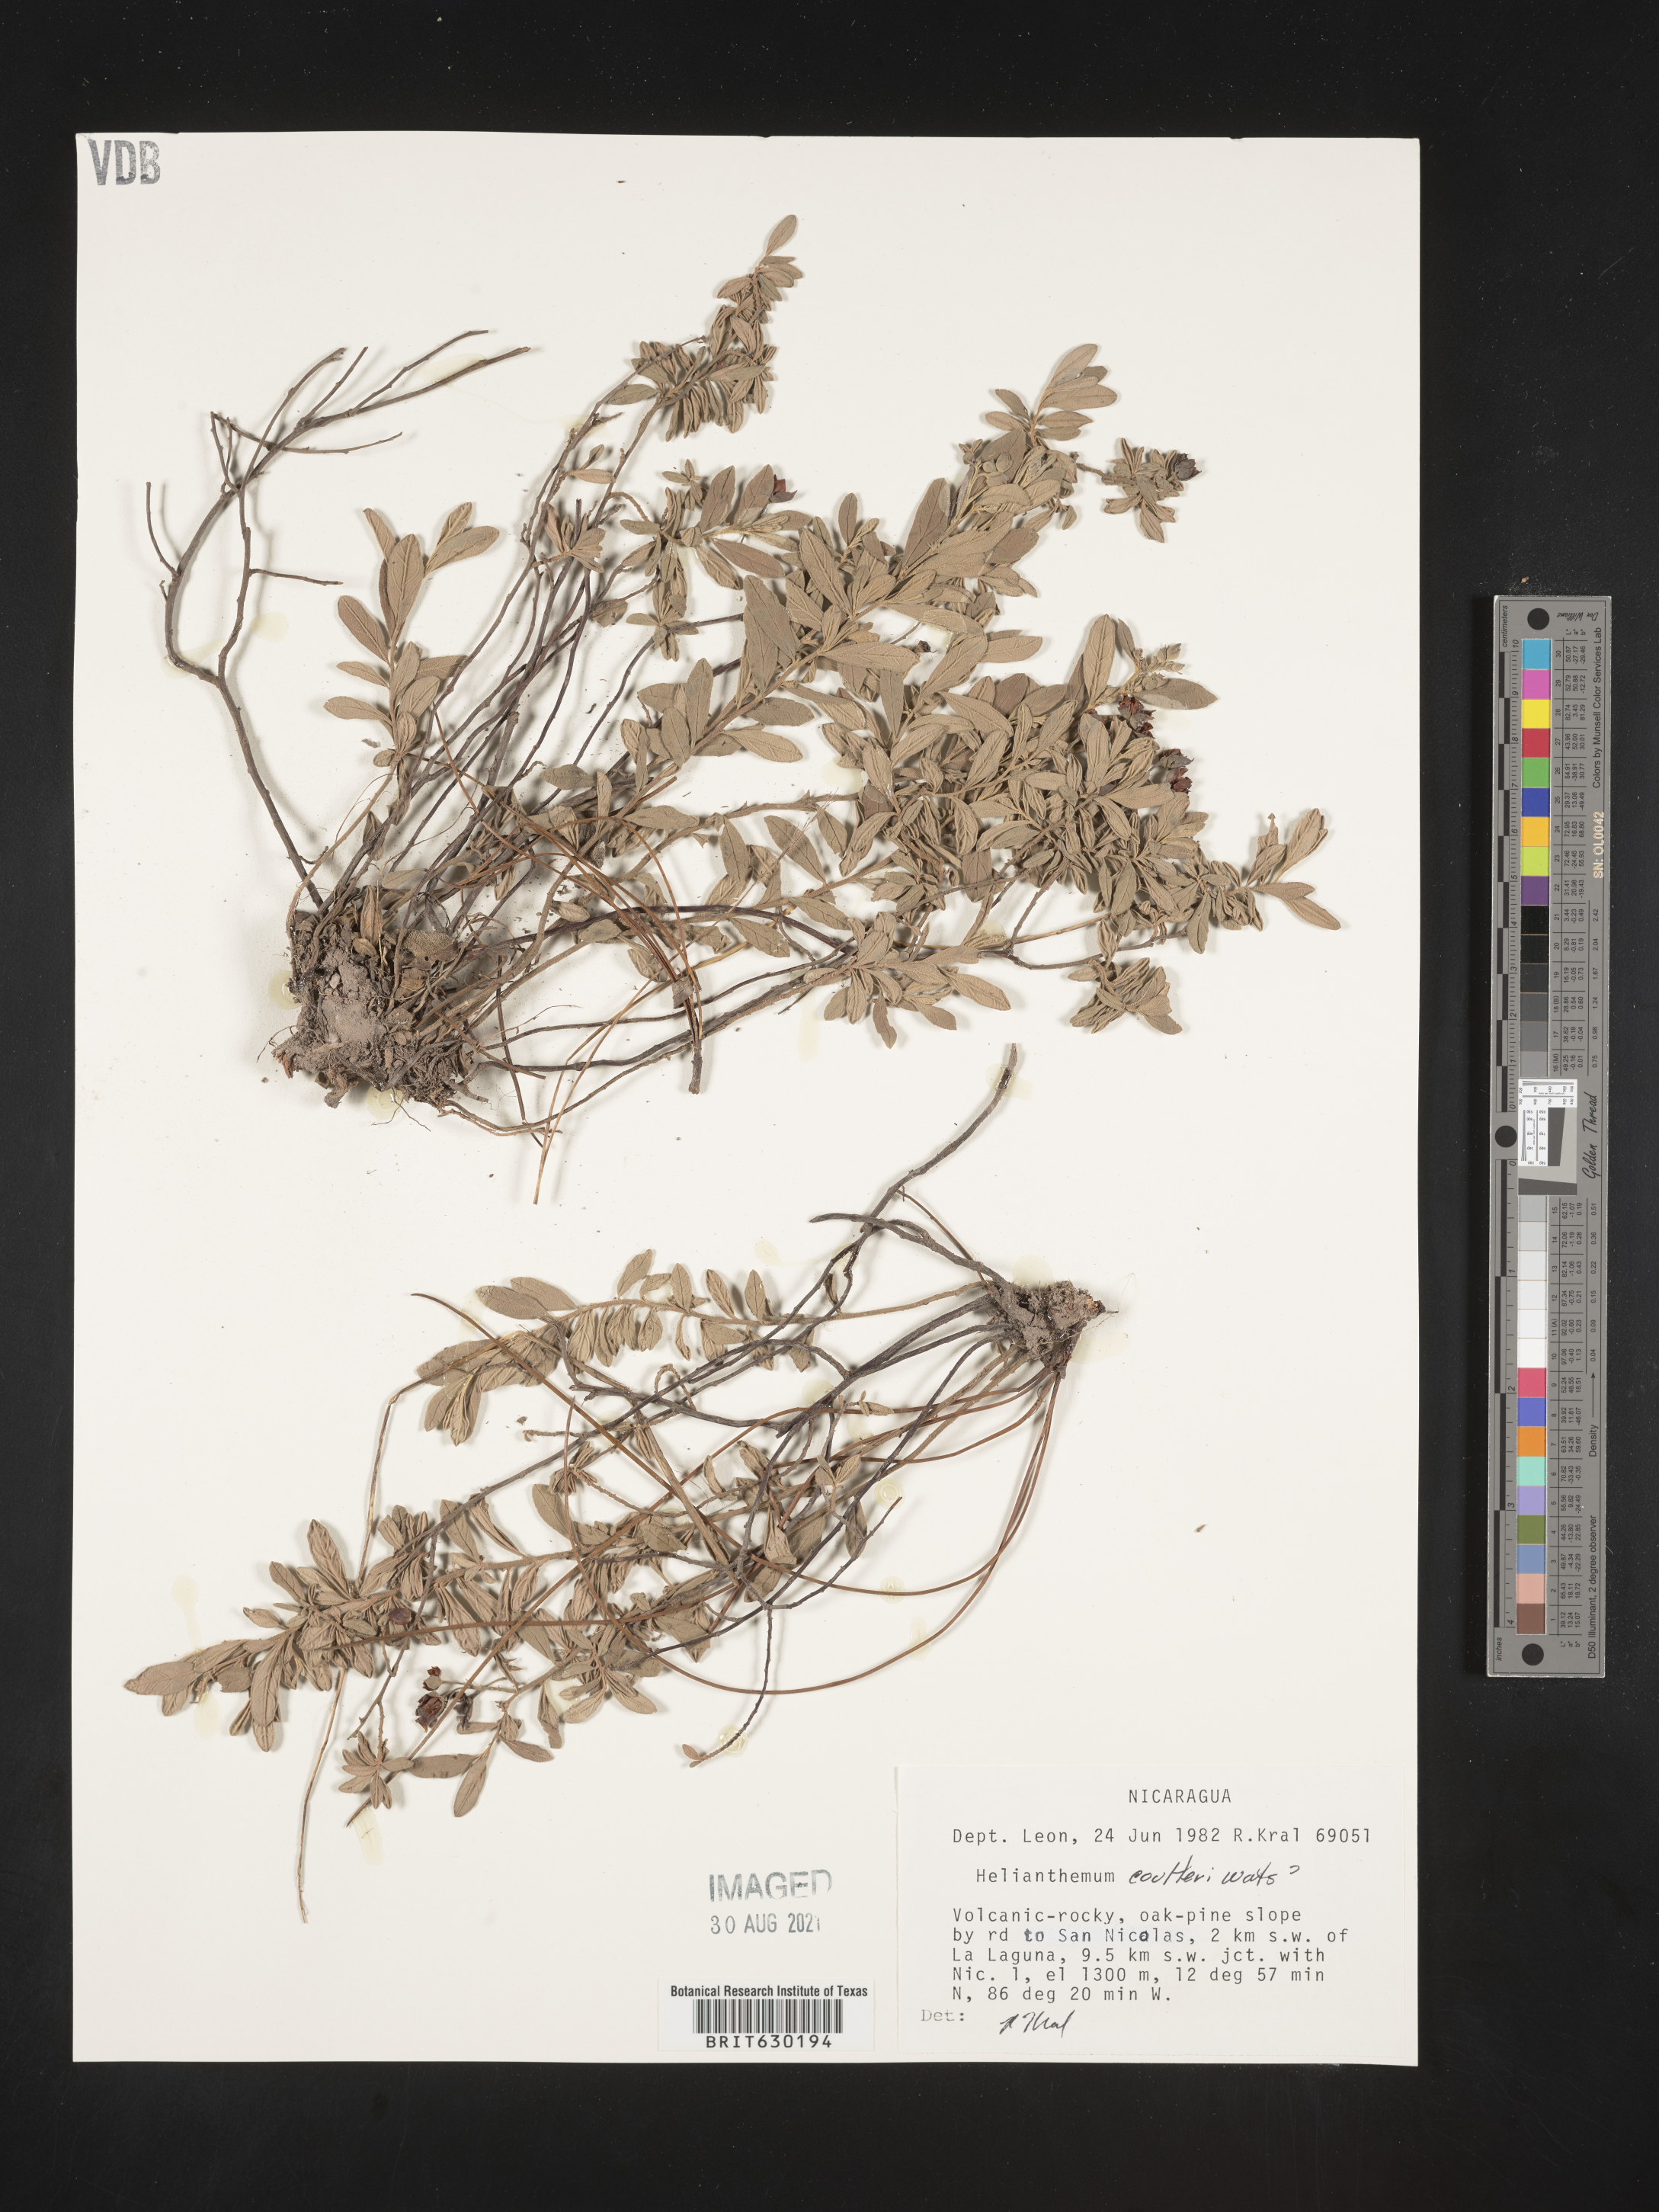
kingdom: Plantae
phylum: Tracheophyta
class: Magnoliopsida
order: Malvales
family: Cistaceae
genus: Helianthemum
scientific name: Helianthemum
